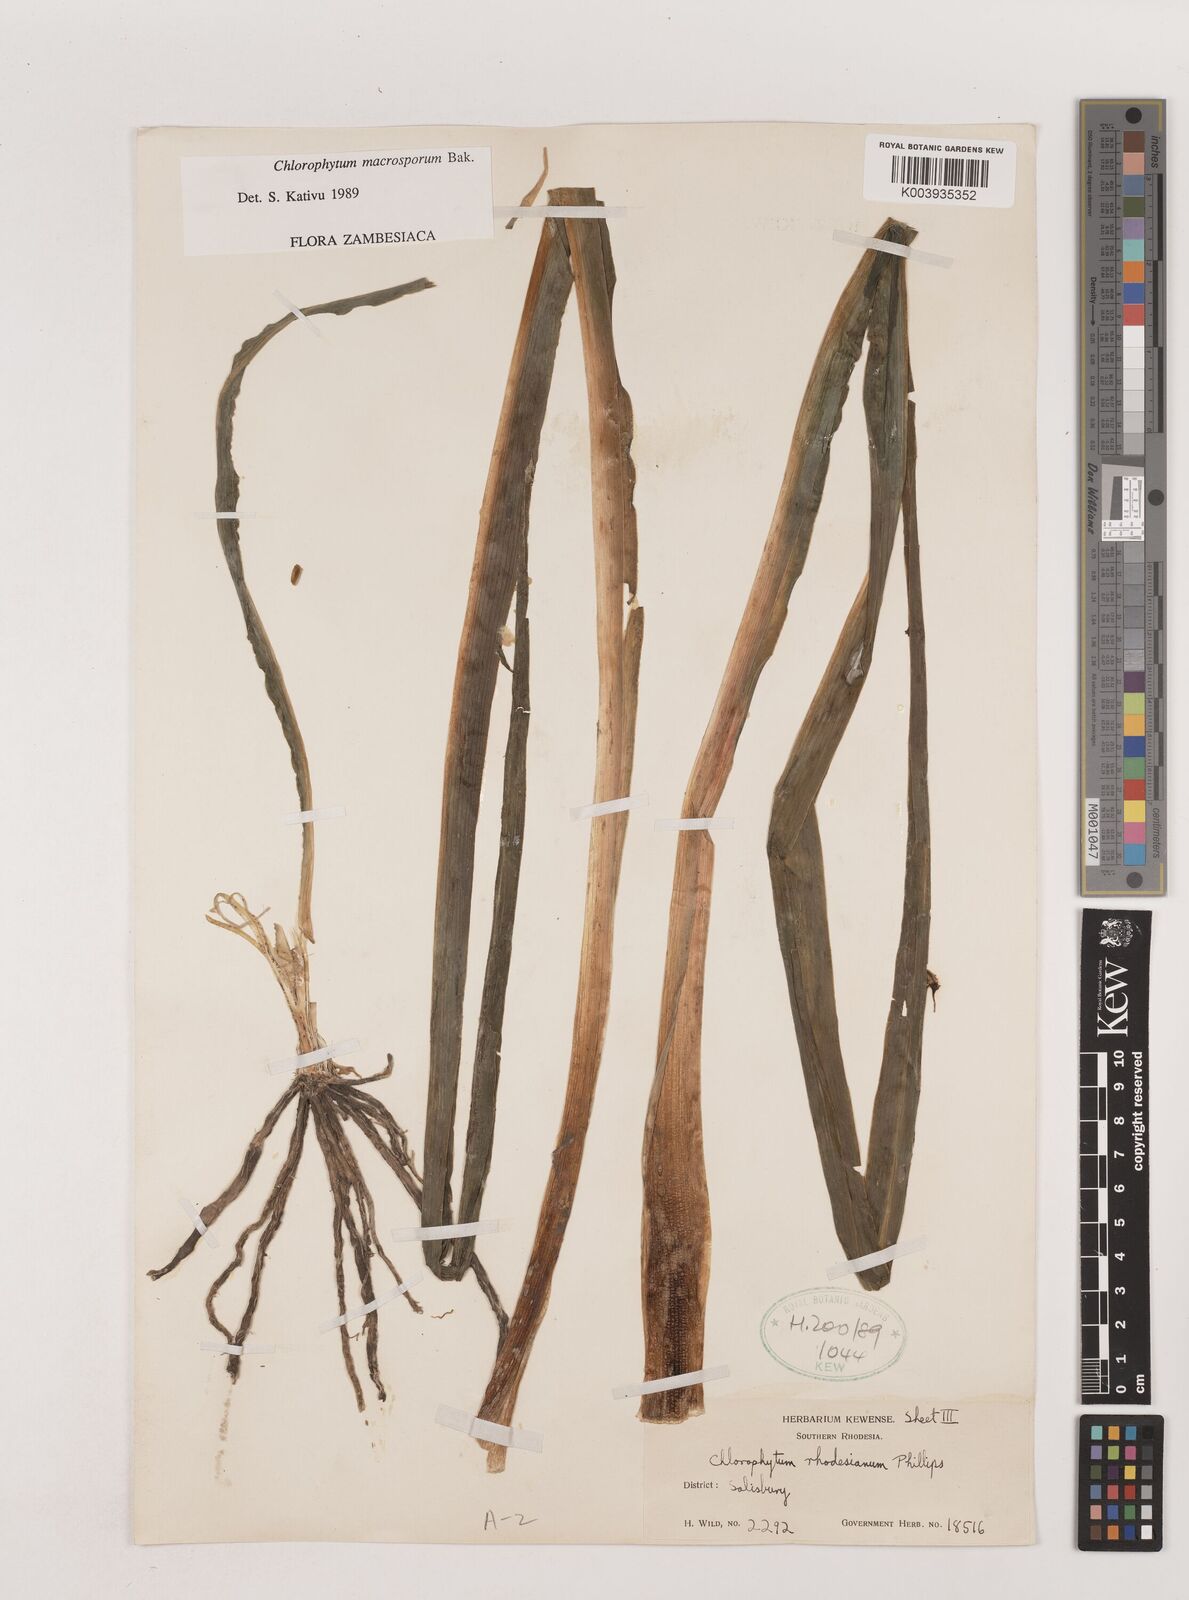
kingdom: Plantae
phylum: Tracheophyta
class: Liliopsida
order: Asparagales
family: Asparagaceae
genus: Chlorophytum
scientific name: Chlorophytum macrosporum
